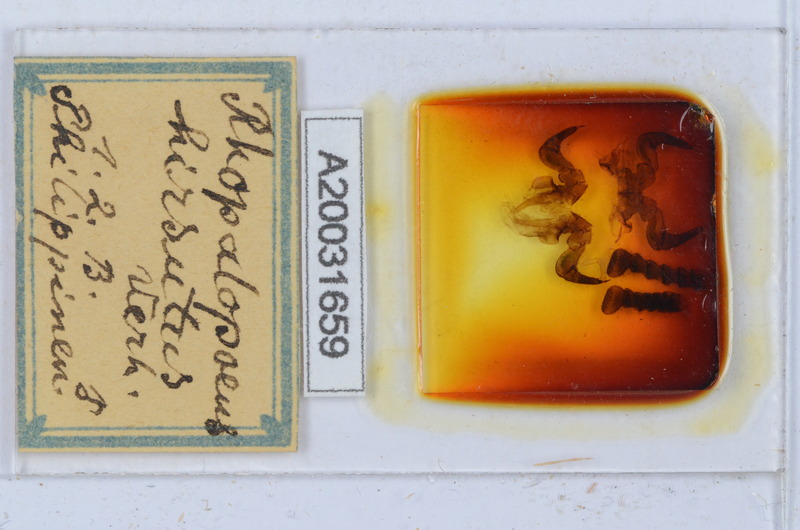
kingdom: Animalia
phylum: Arthropoda
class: Diplopoda
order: Sphaerotheriida
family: Zephroniidae
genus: Rhopalopaeus
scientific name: Rhopalopaeus hirsutus
